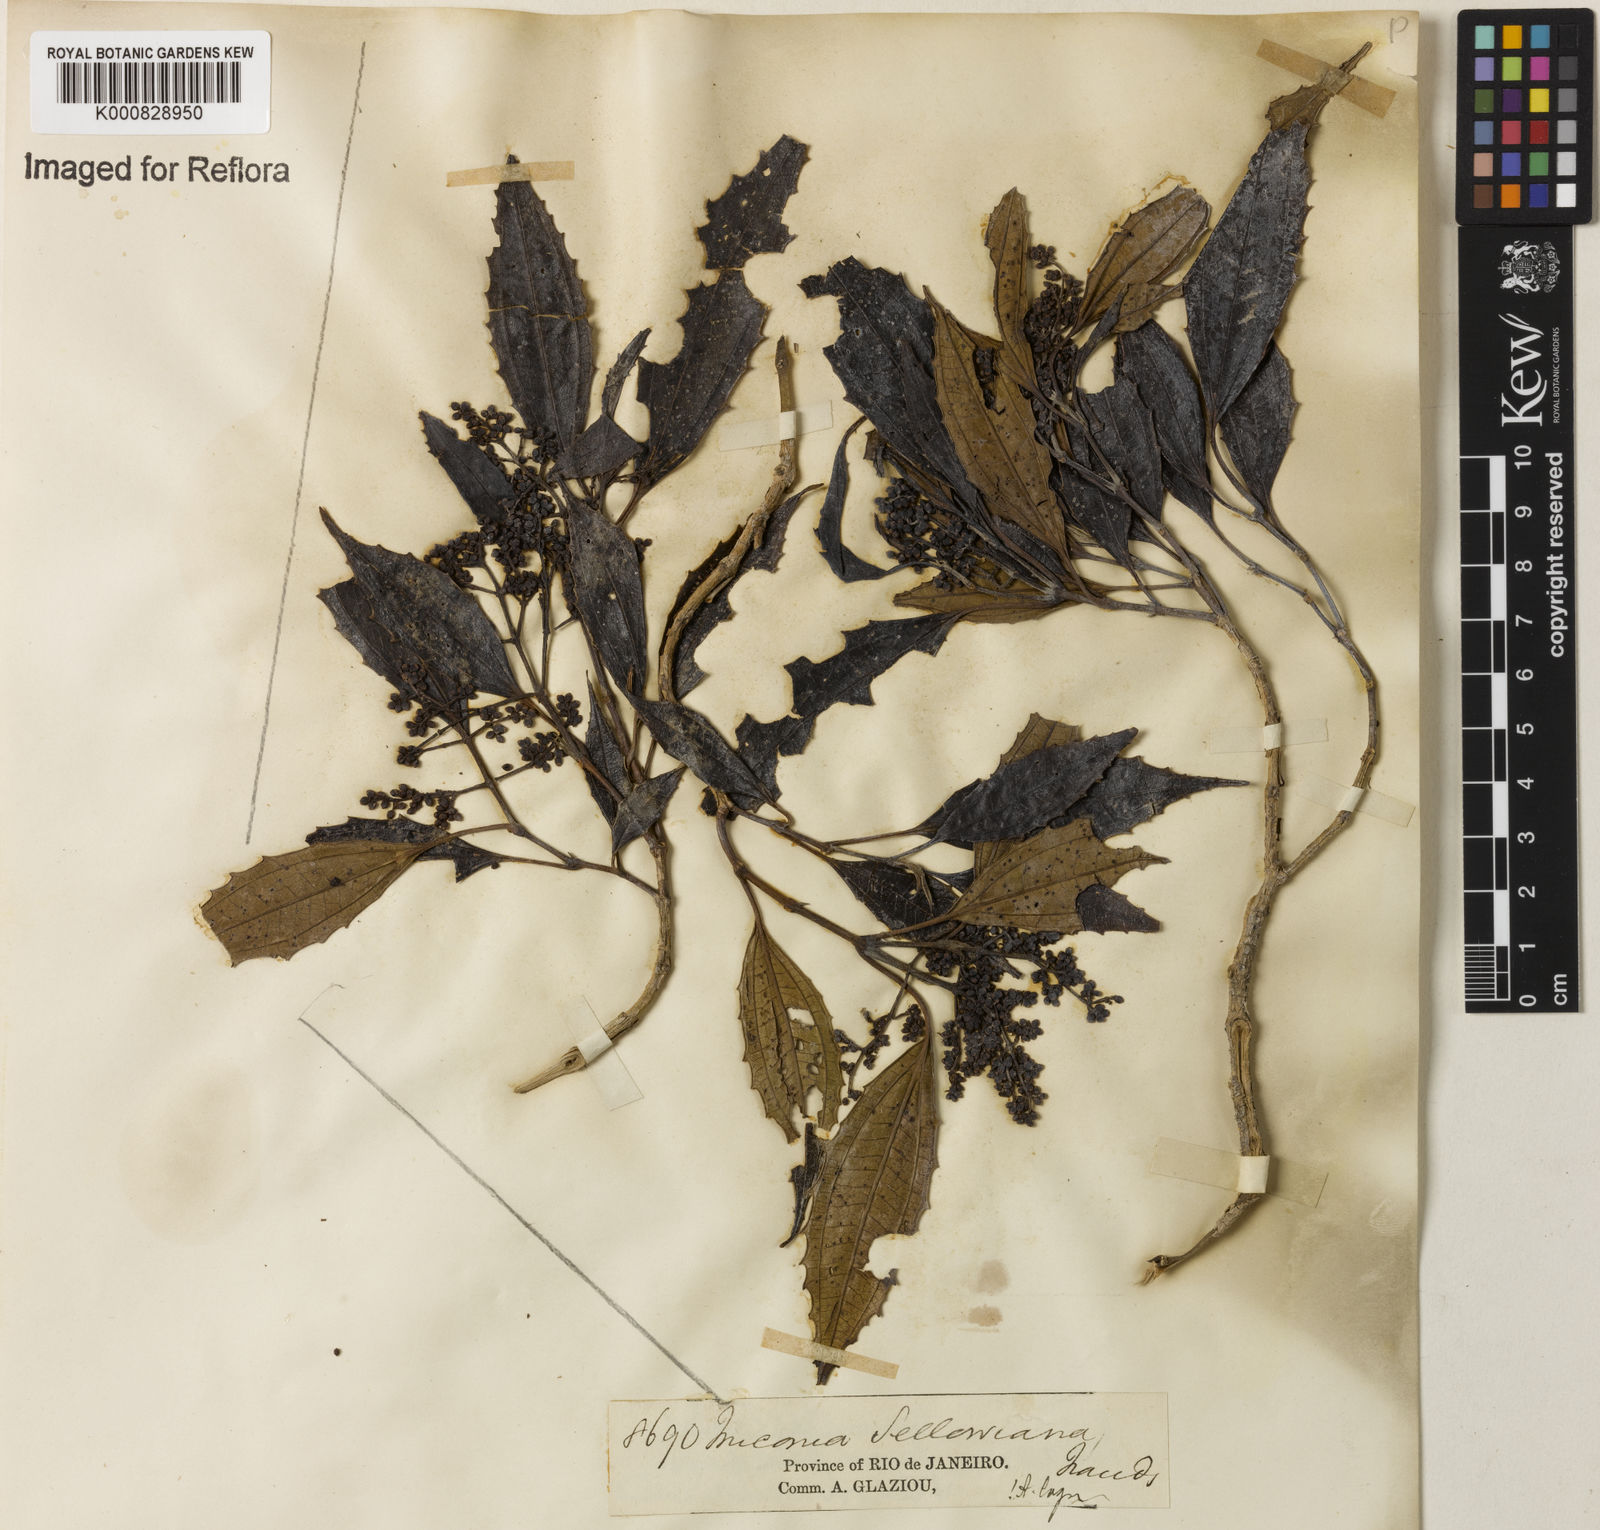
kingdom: Plantae
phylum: Tracheophyta
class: Magnoliopsida
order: Myrtales
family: Melastomataceae
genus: Miconia
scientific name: Miconia sellowiana
